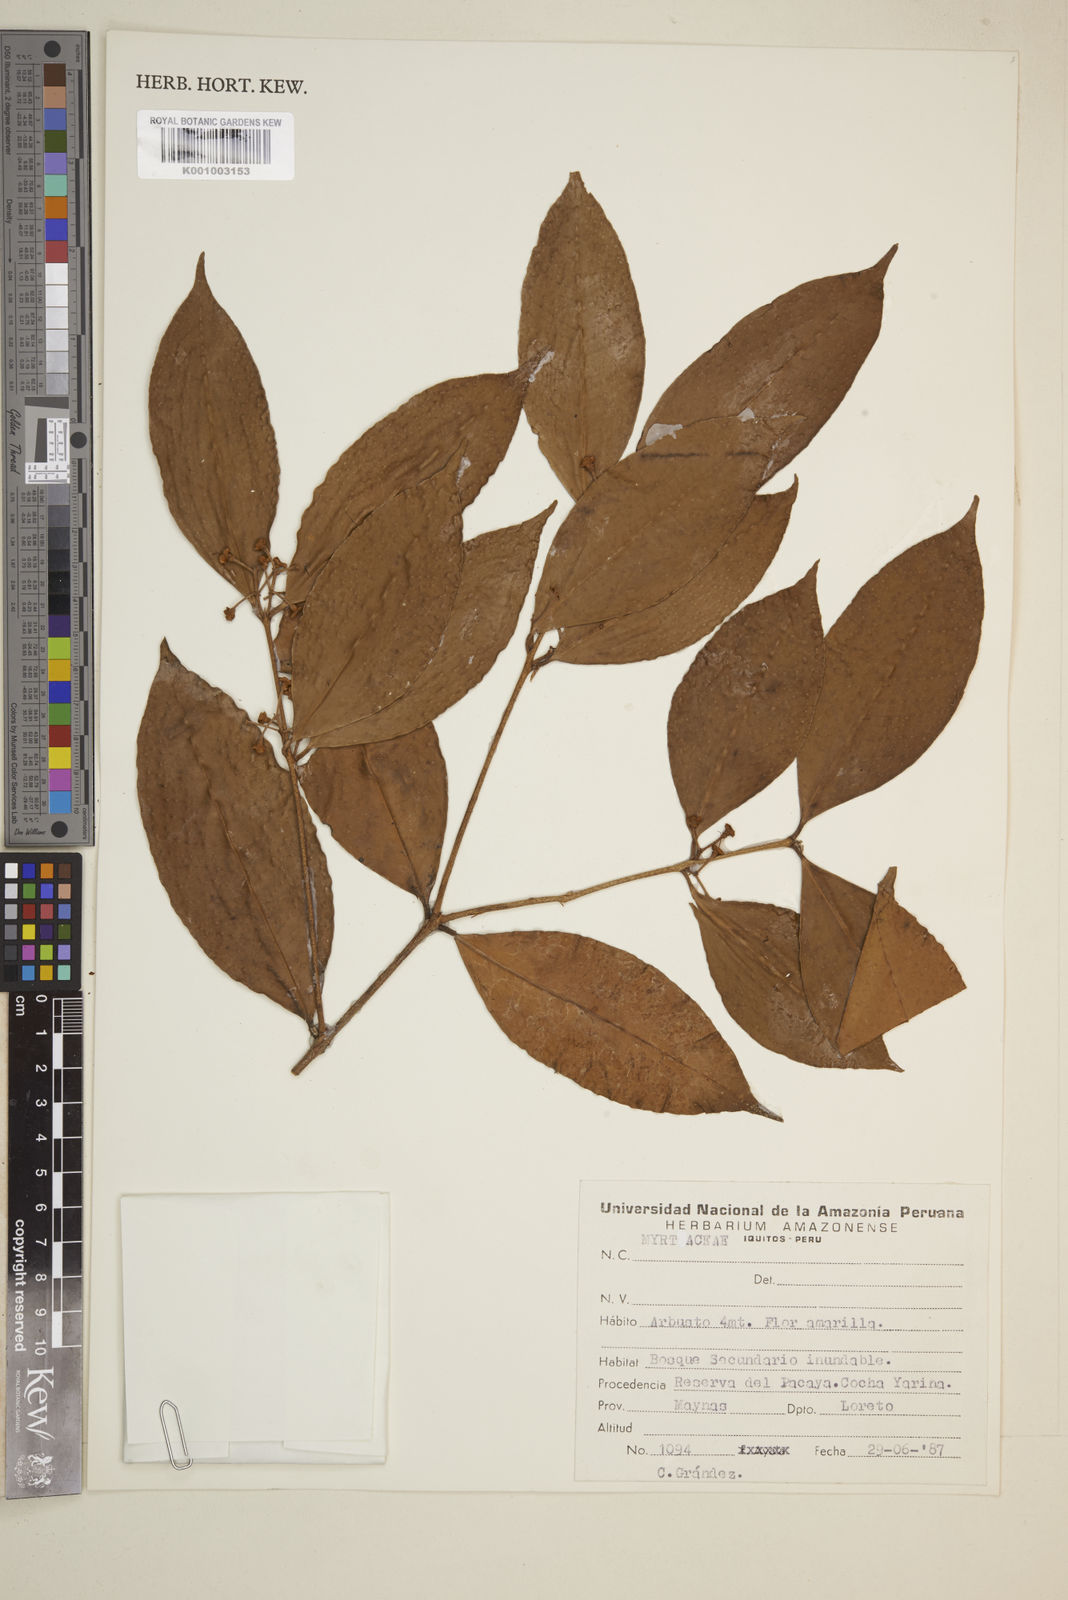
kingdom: Plantae
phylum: Tracheophyta
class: Magnoliopsida
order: Myrtales
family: Myrtaceae
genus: Eugenia
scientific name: Eugenia
